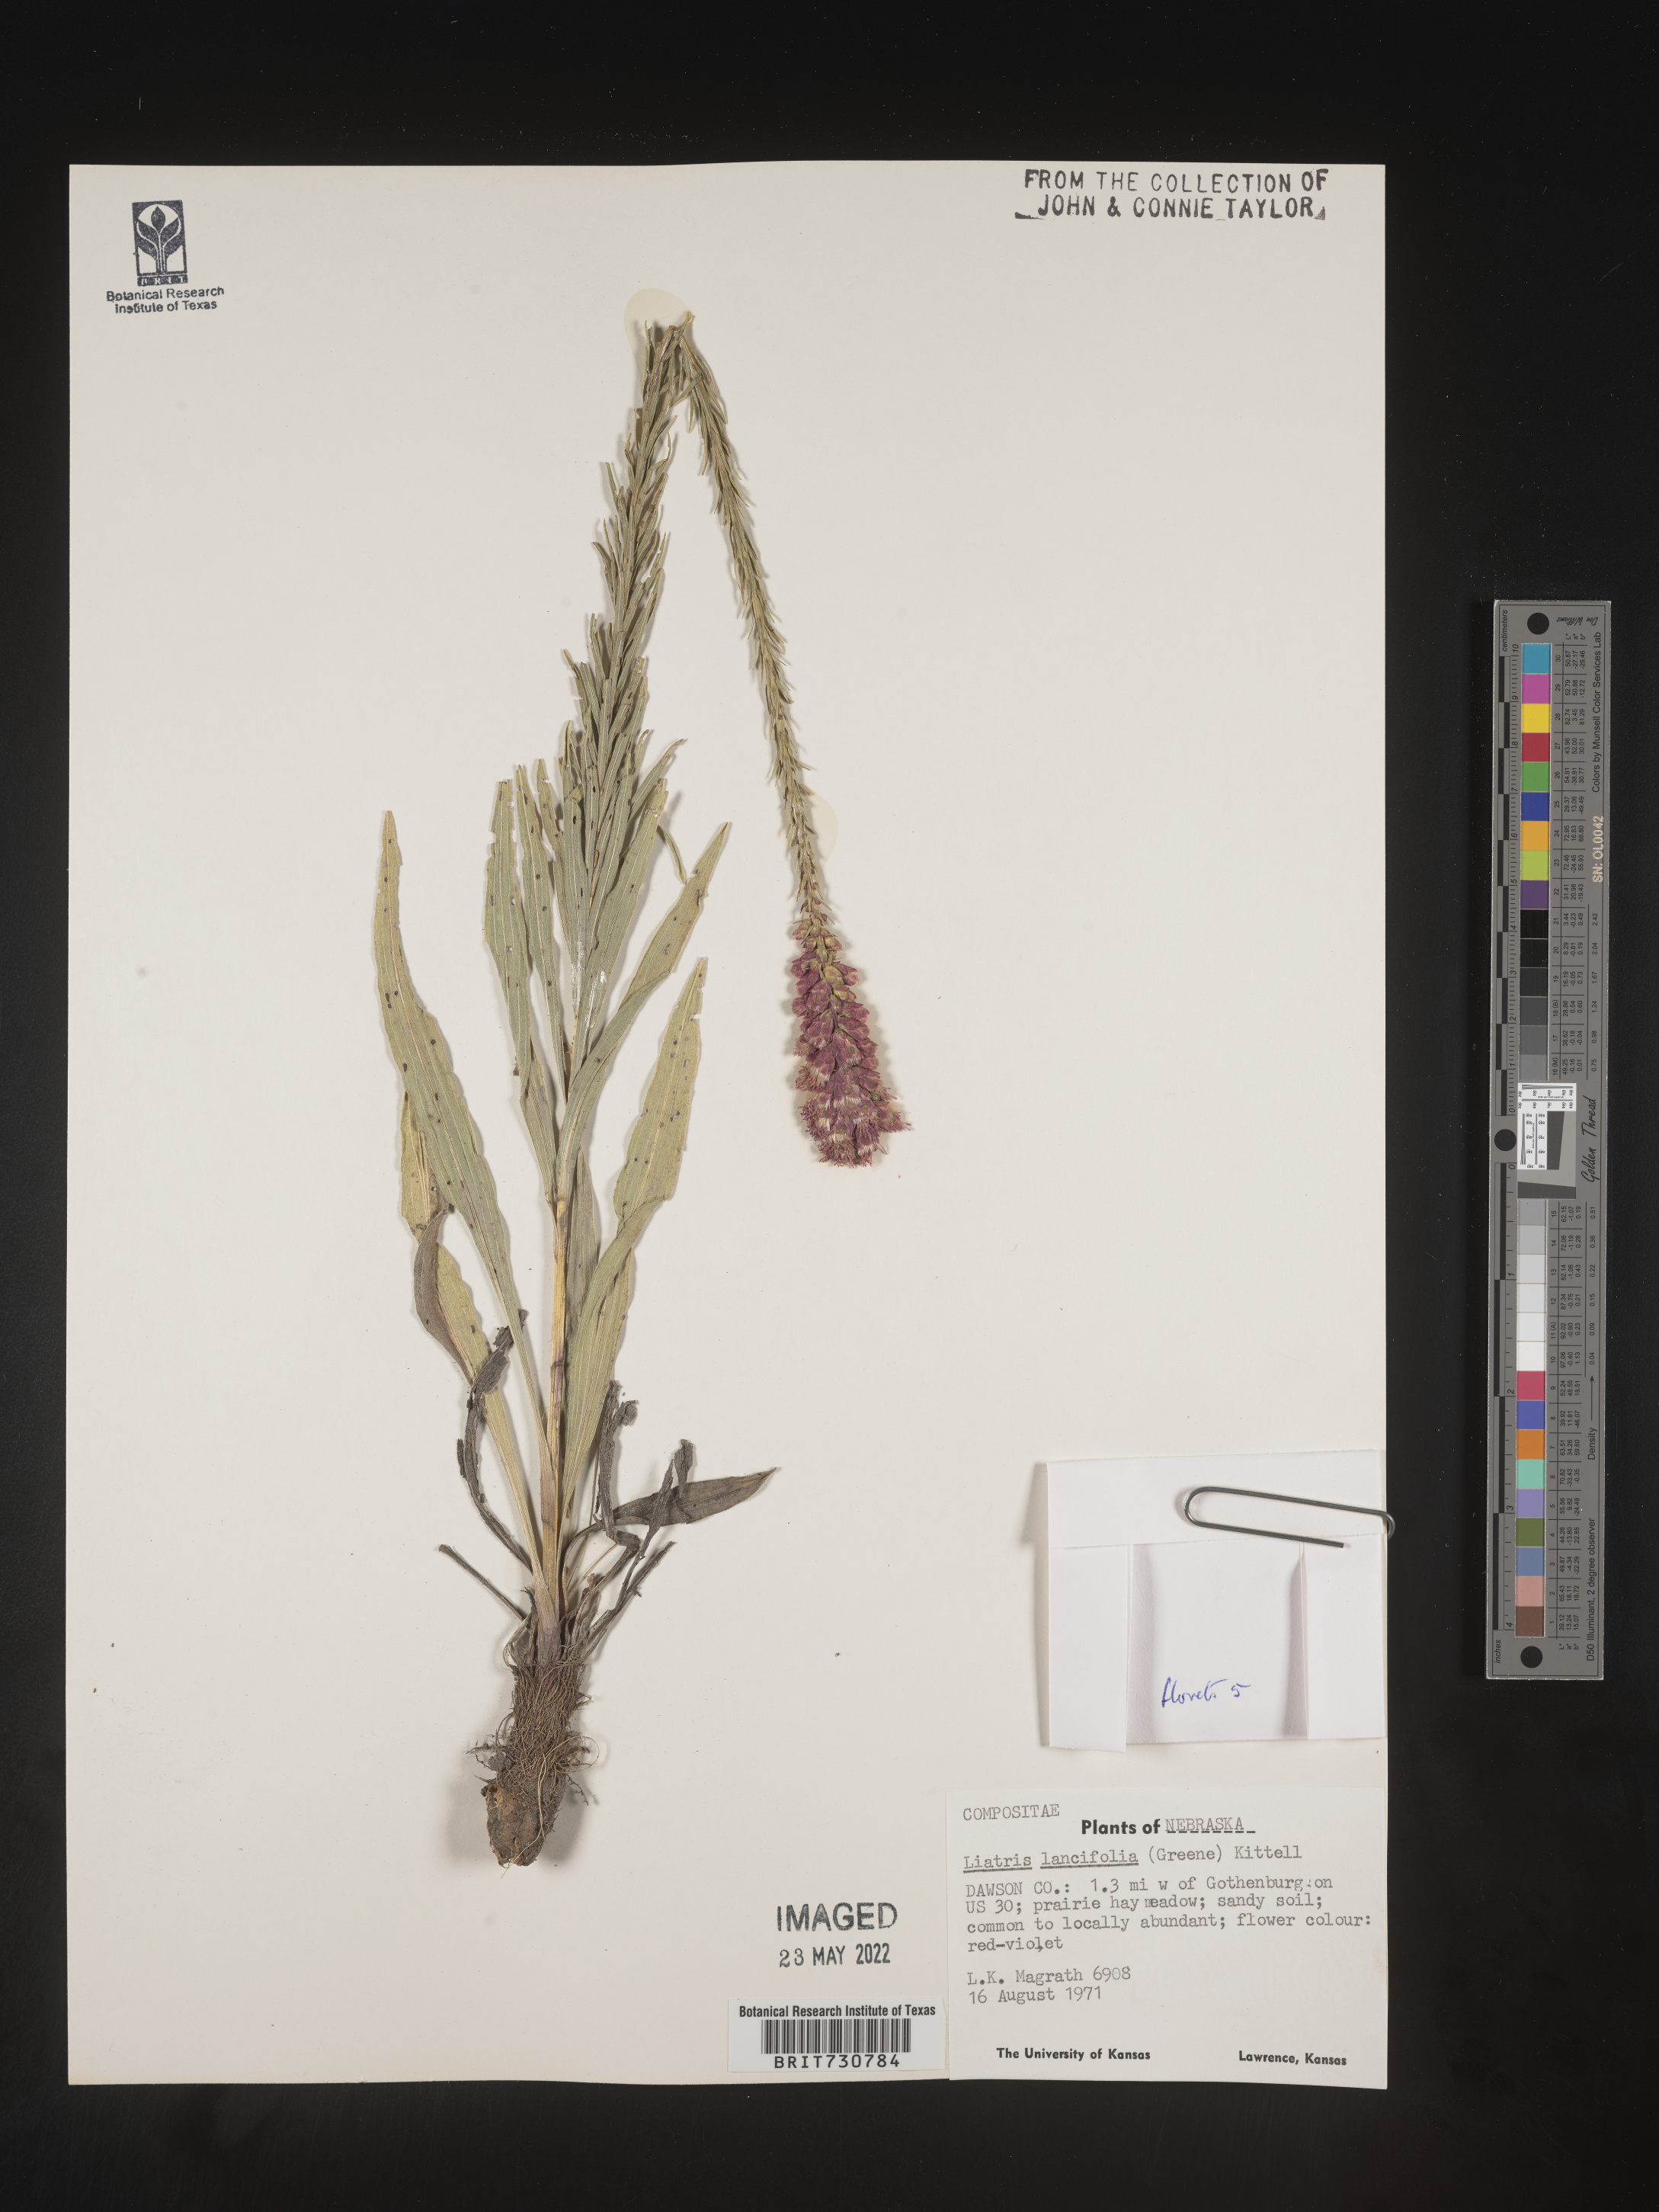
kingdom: Plantae
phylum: Tracheophyta
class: Magnoliopsida
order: Asterales
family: Asteraceae
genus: Liatris
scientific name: Liatris lancifolia
